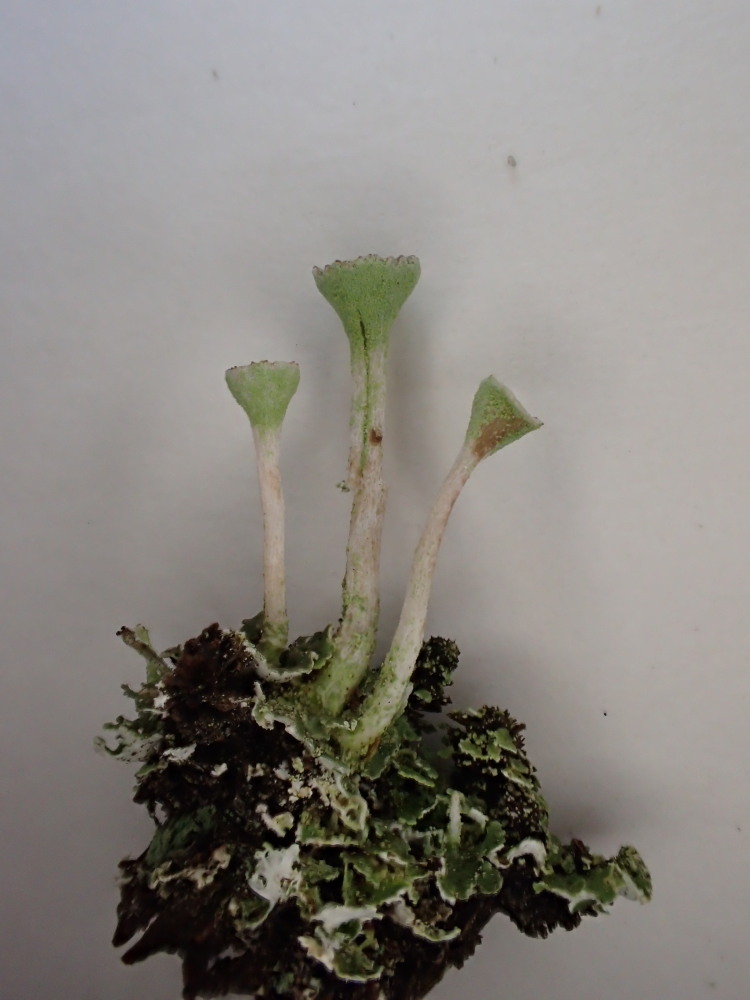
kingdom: Fungi
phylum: Ascomycota
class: Lecanoromycetes
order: Lecanorales
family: Cladoniaceae
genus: Cladonia
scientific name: Cladonia fimbriata
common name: bleggrøn bægerlav
